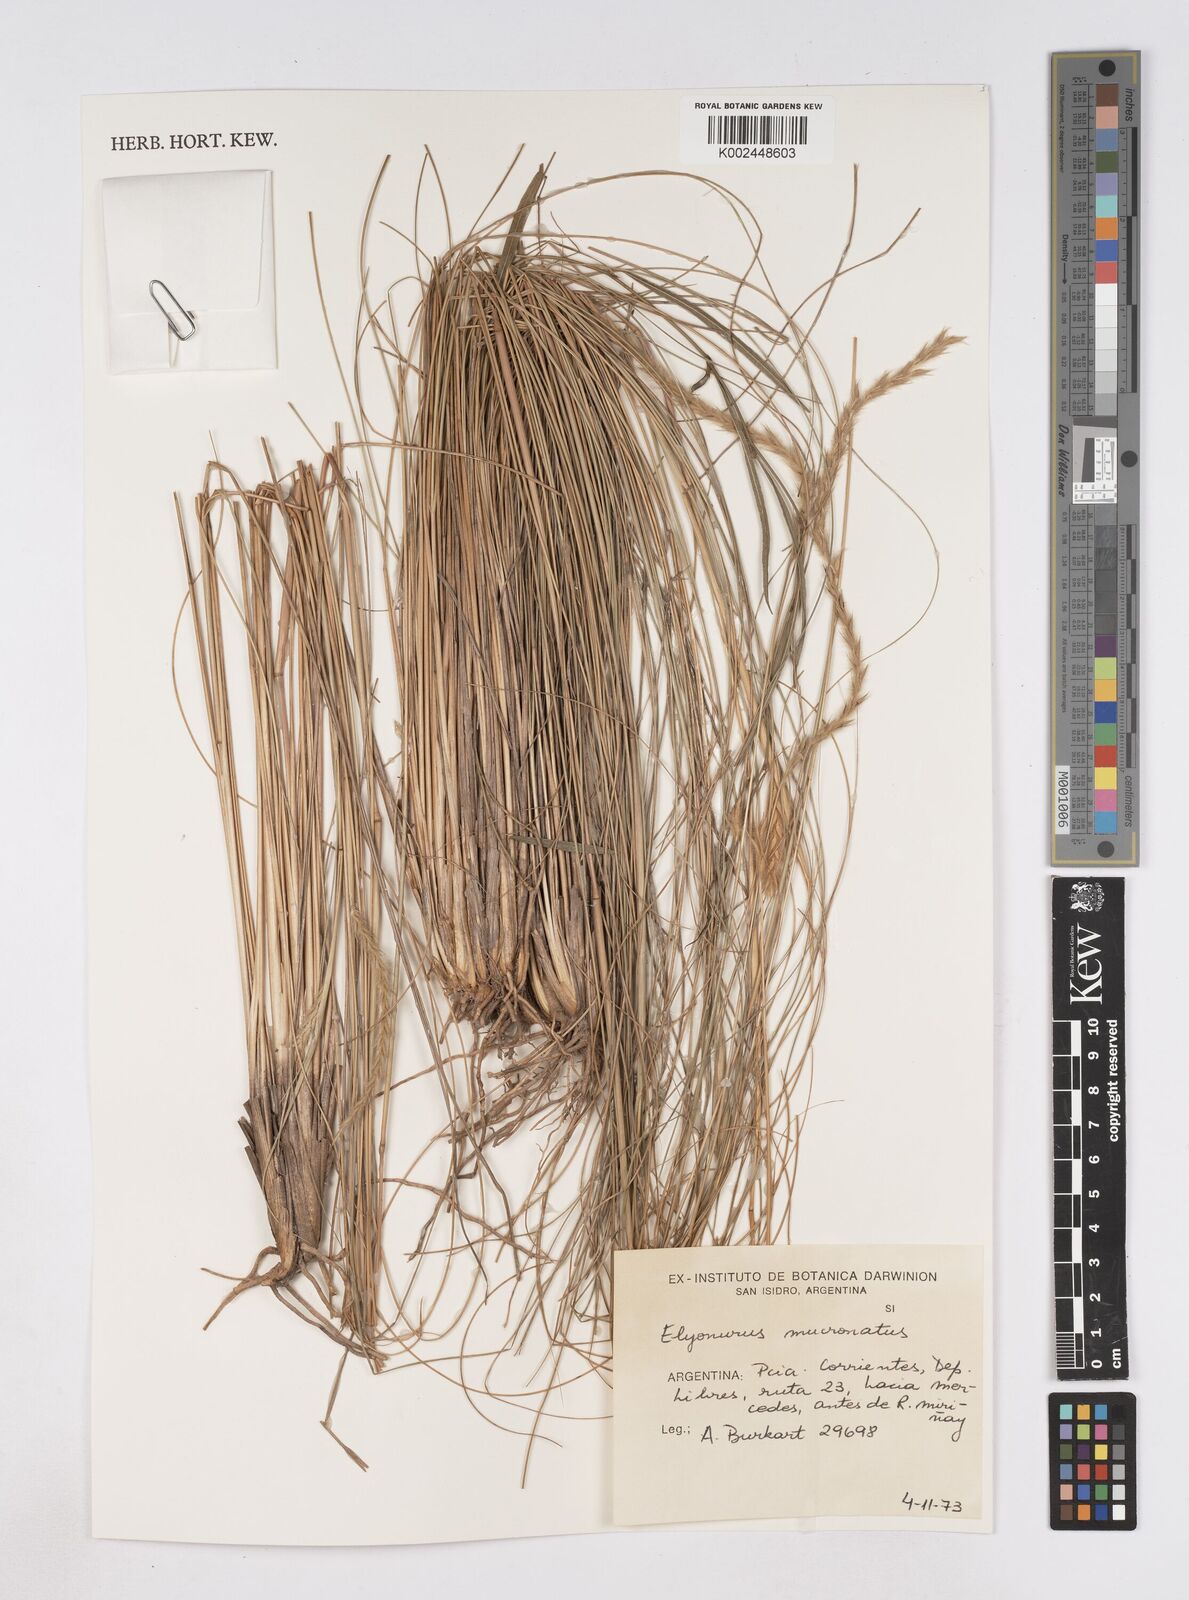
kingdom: Plantae
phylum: Tracheophyta
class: Liliopsida
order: Poales
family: Poaceae
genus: Elionurus
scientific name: Elionurus muticus
